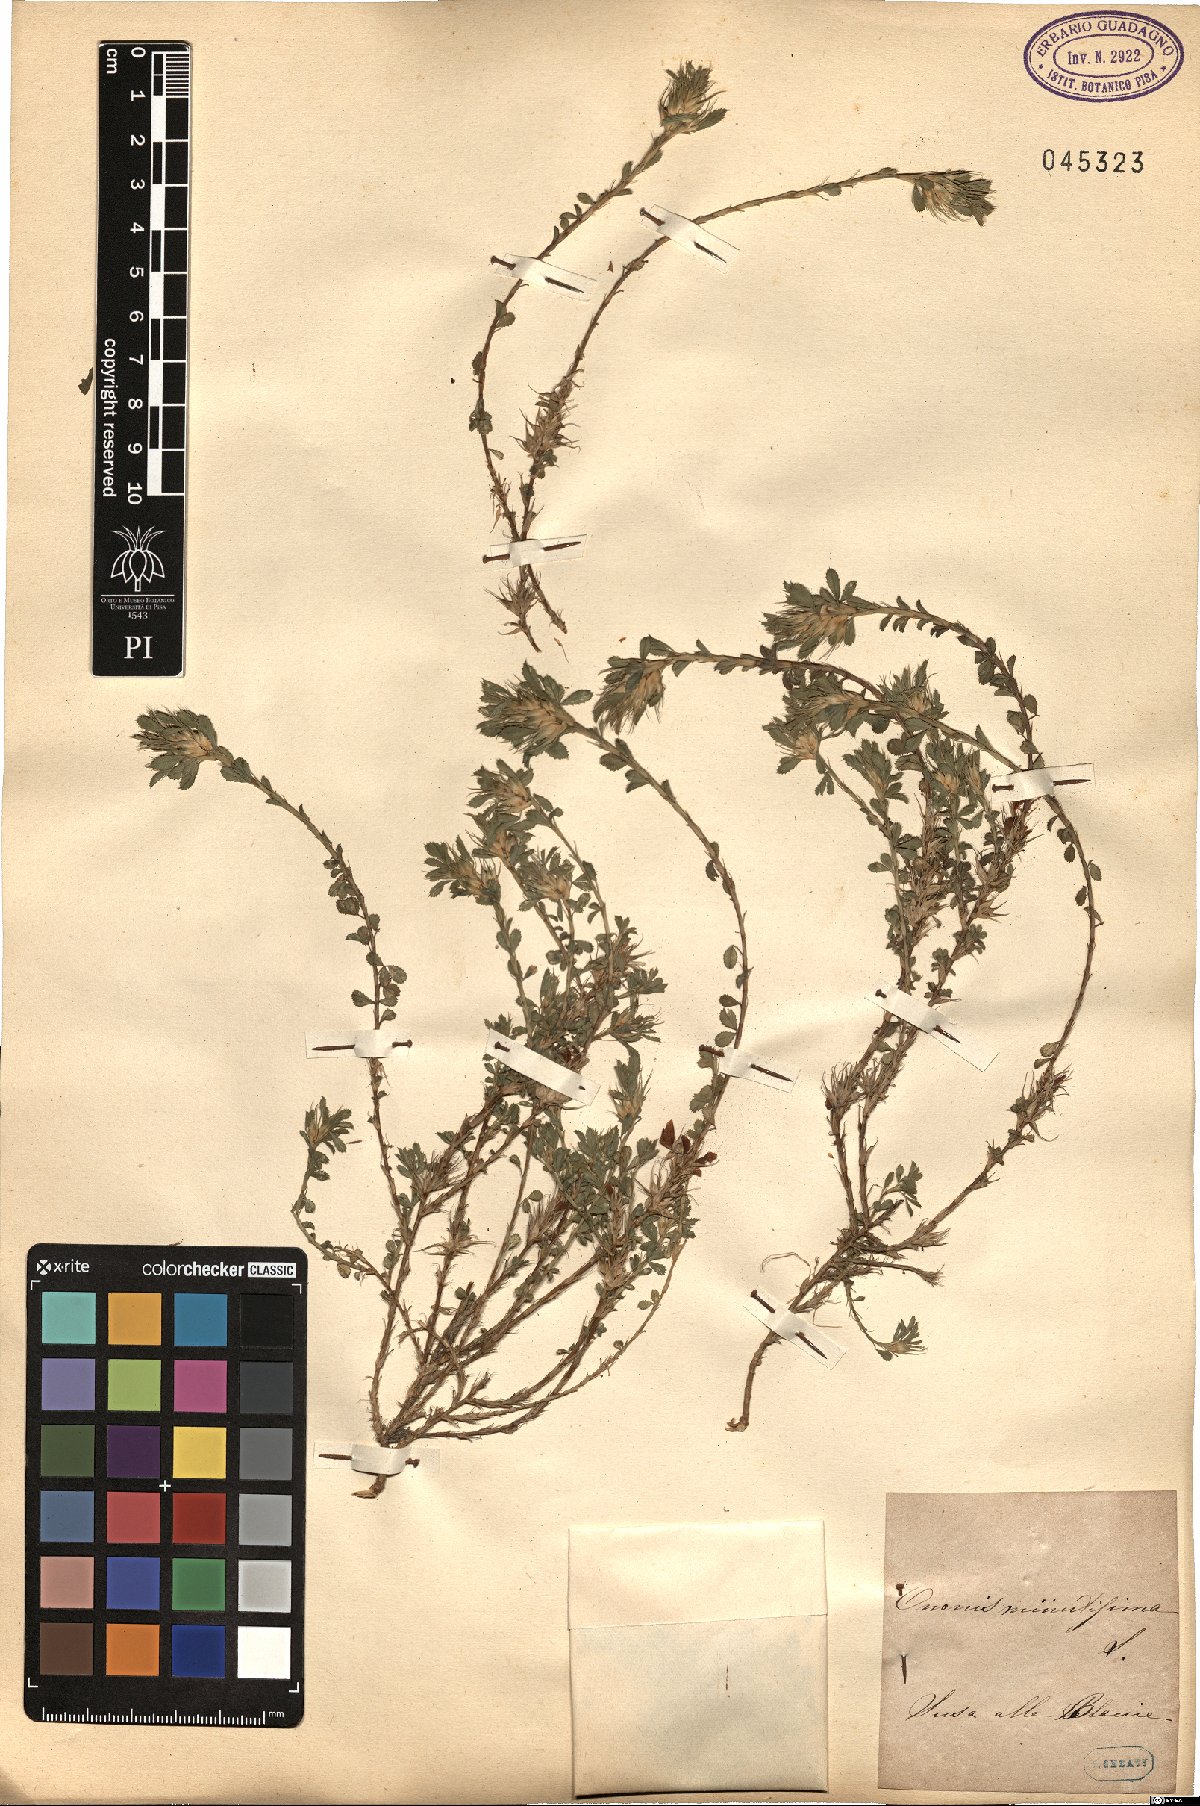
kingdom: Plantae
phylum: Tracheophyta
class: Magnoliopsida
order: Fabales
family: Fabaceae
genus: Ononis
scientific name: Ononis minutissima
